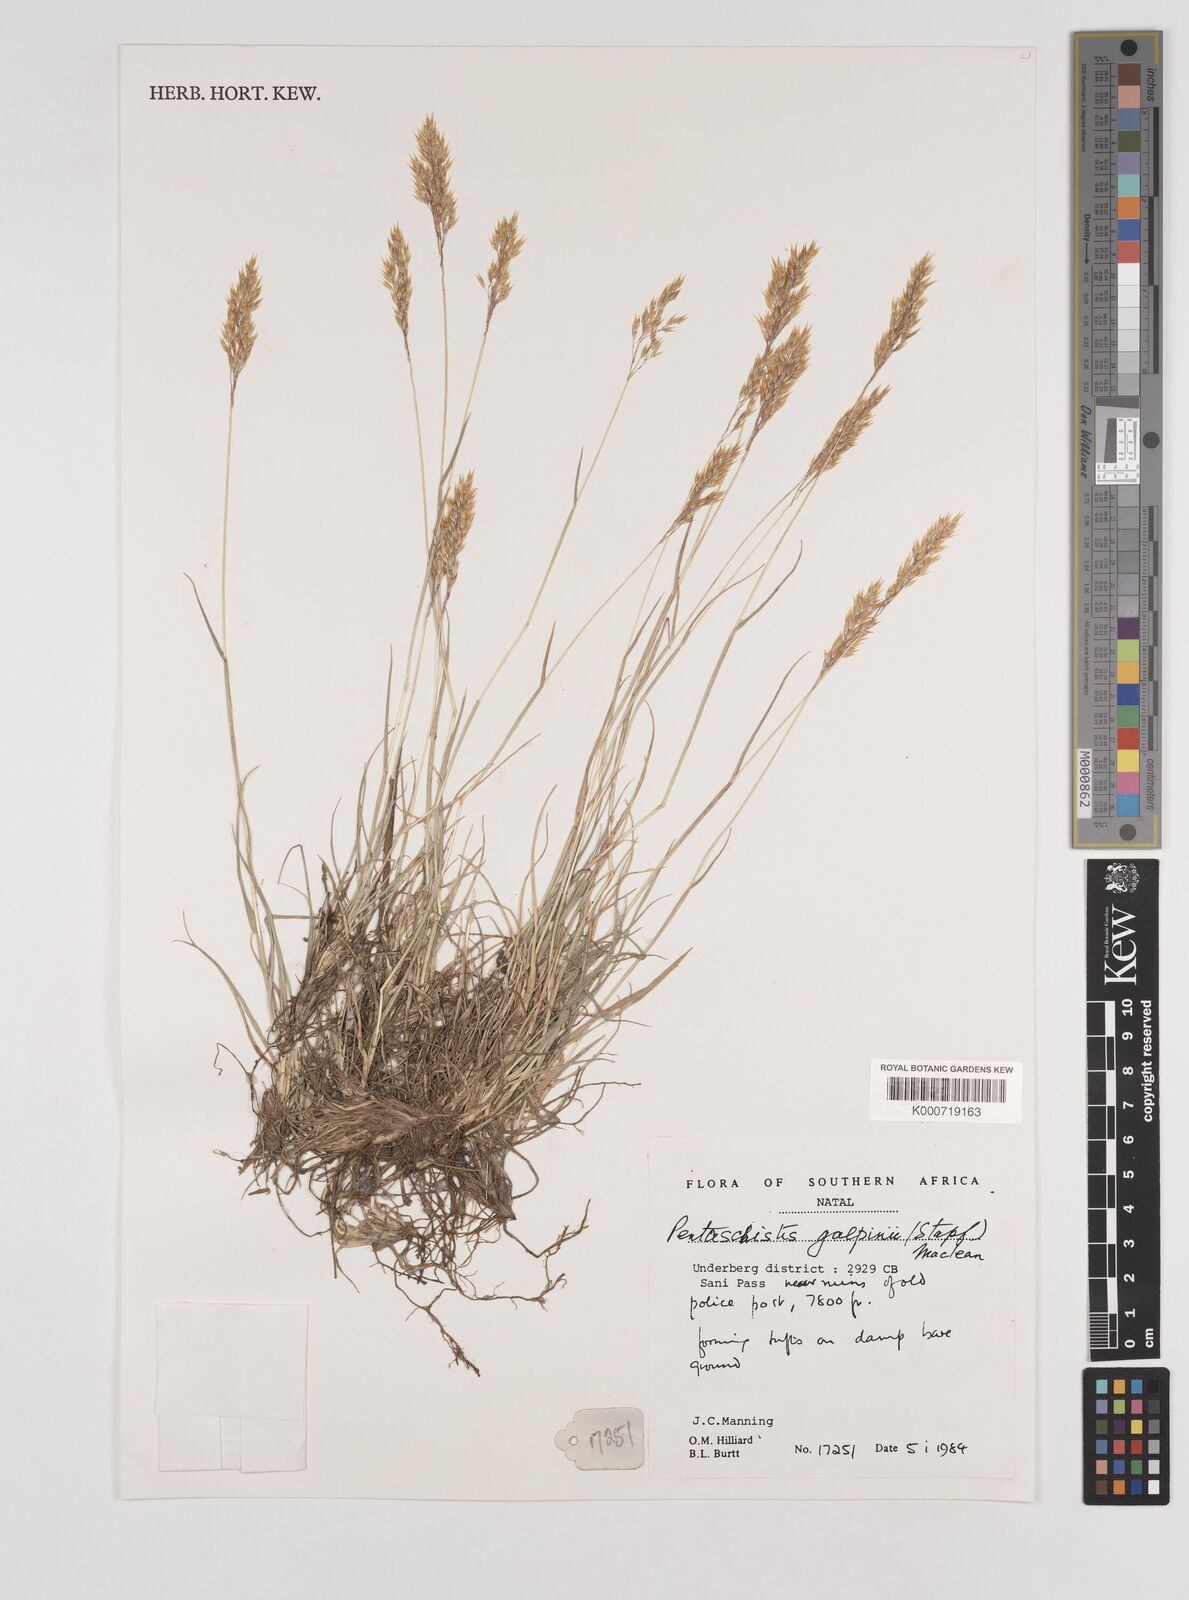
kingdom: Plantae
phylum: Tracheophyta
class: Liliopsida
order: Poales
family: Poaceae
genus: Pentameris
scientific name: Pentameris galpinii
